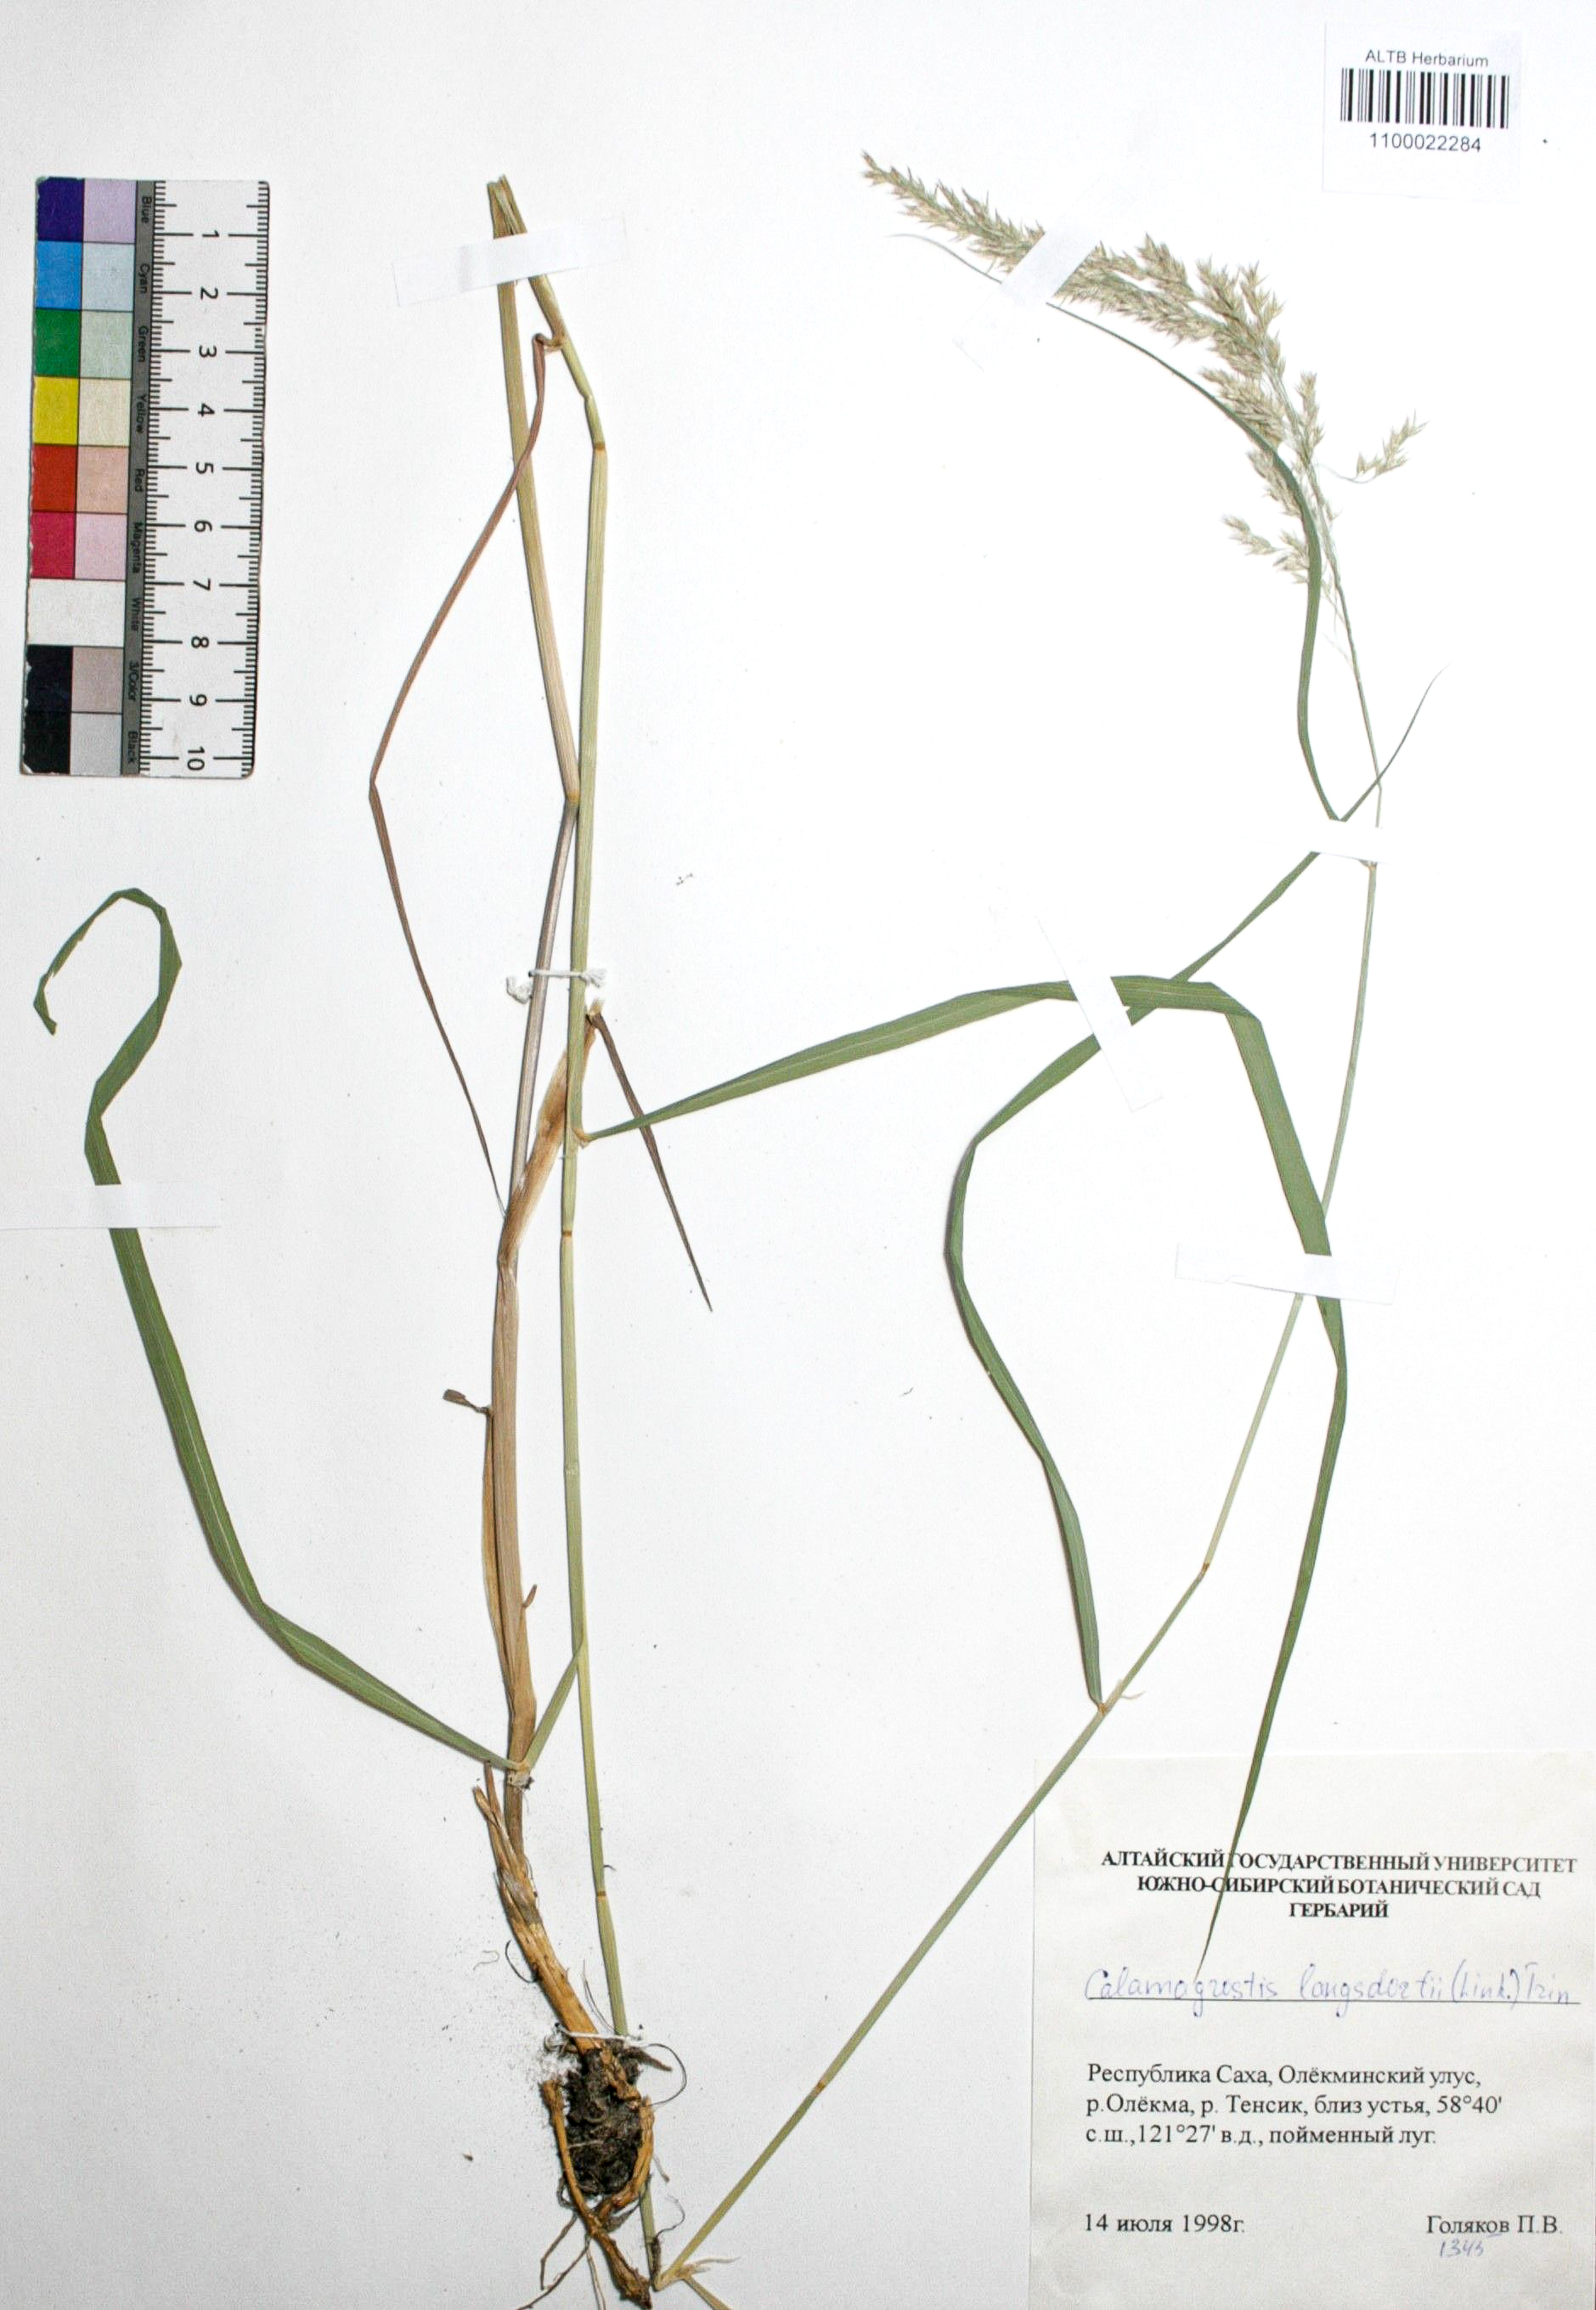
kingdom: Plantae
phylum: Tracheophyta
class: Liliopsida
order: Poales
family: Poaceae
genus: Calamagrostis
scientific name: Calamagrostis purpurea
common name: Scandinavian small-reed
